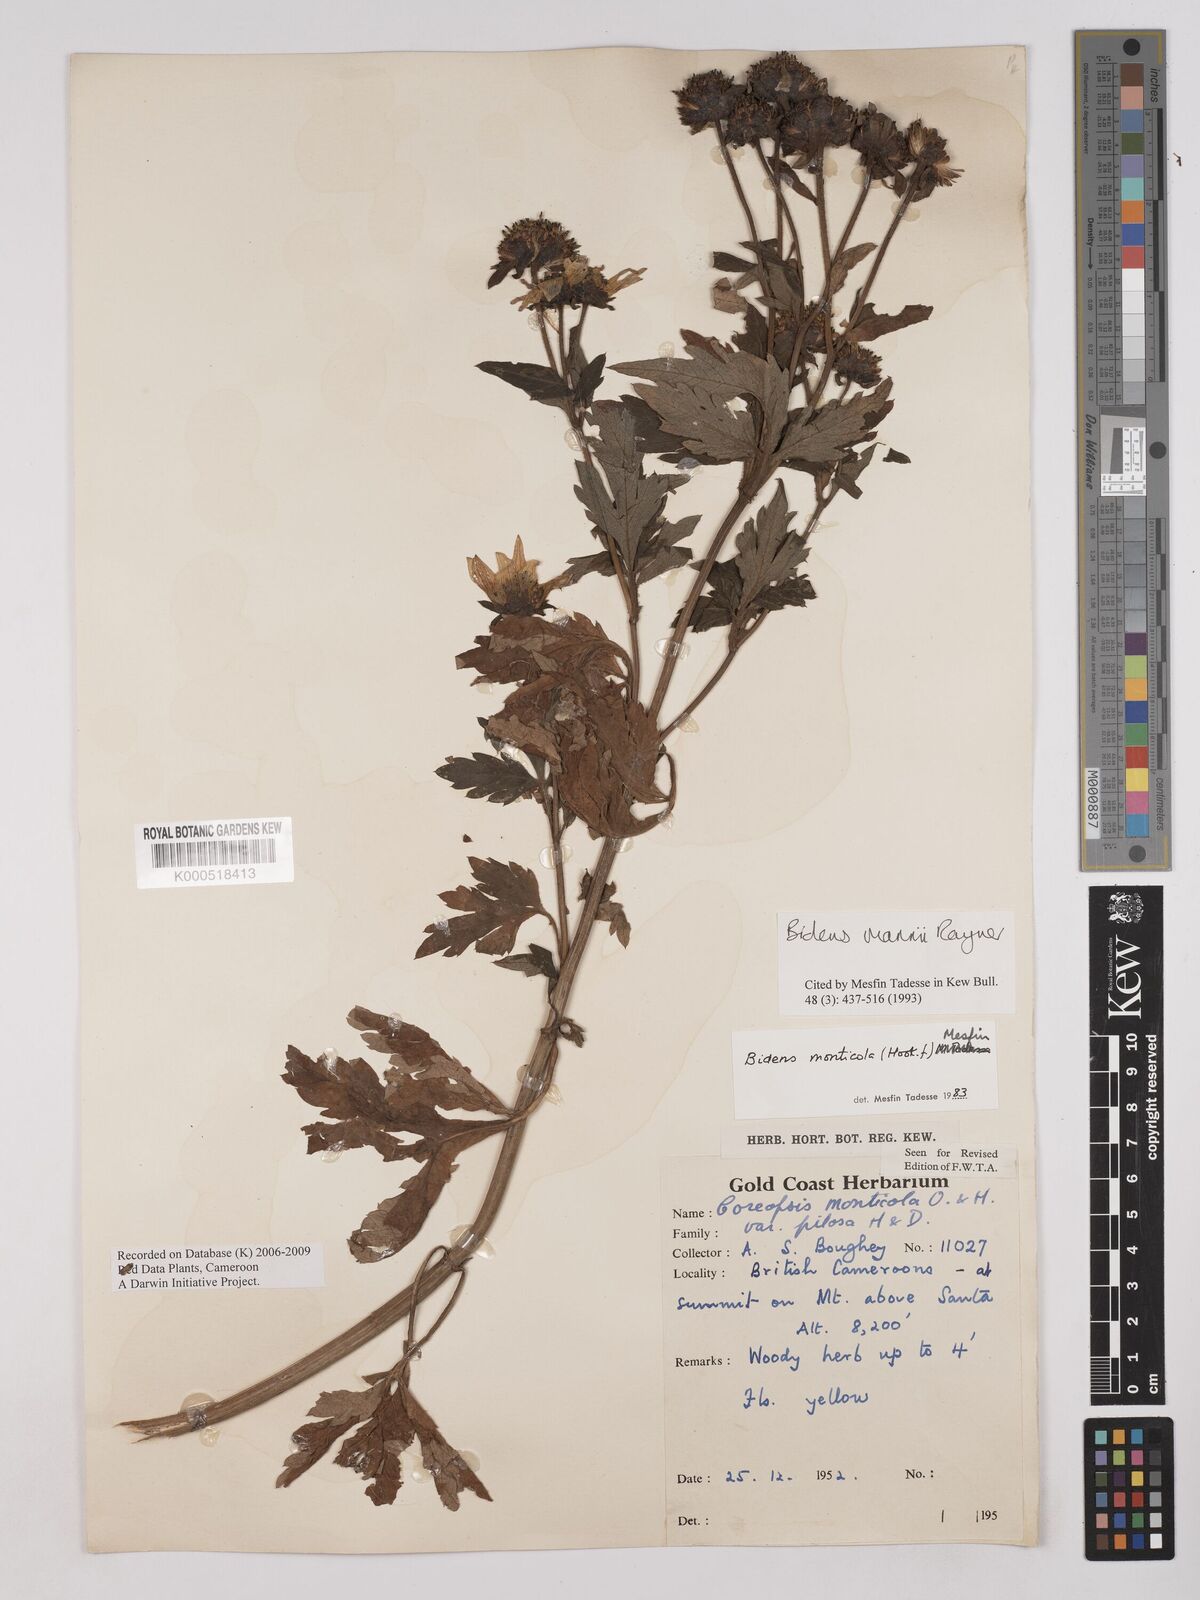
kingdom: Plantae
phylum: Tracheophyta
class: Magnoliopsida
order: Asterales
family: Asteraceae
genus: Bidens
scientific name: Bidens mannii
